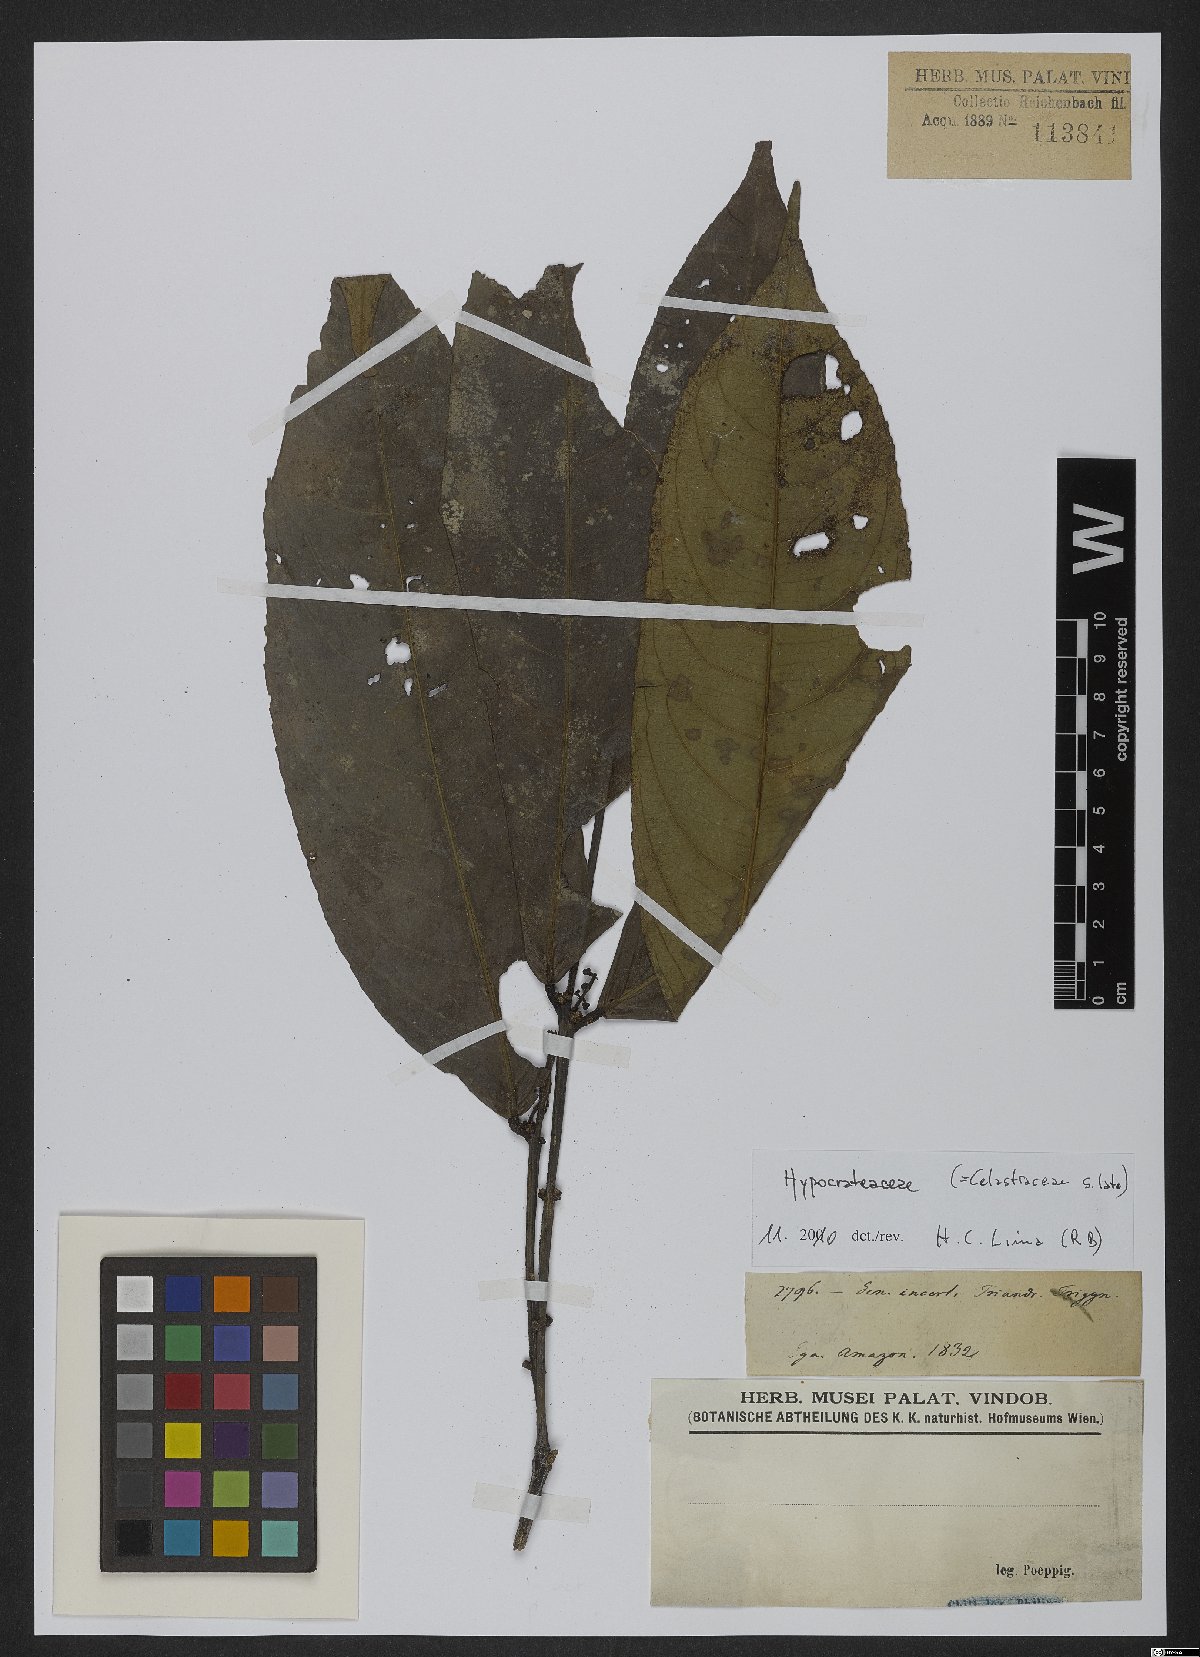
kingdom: Plantae
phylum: Tracheophyta
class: Magnoliopsida
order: Celastrales
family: Celastraceae
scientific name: Celastraceae
